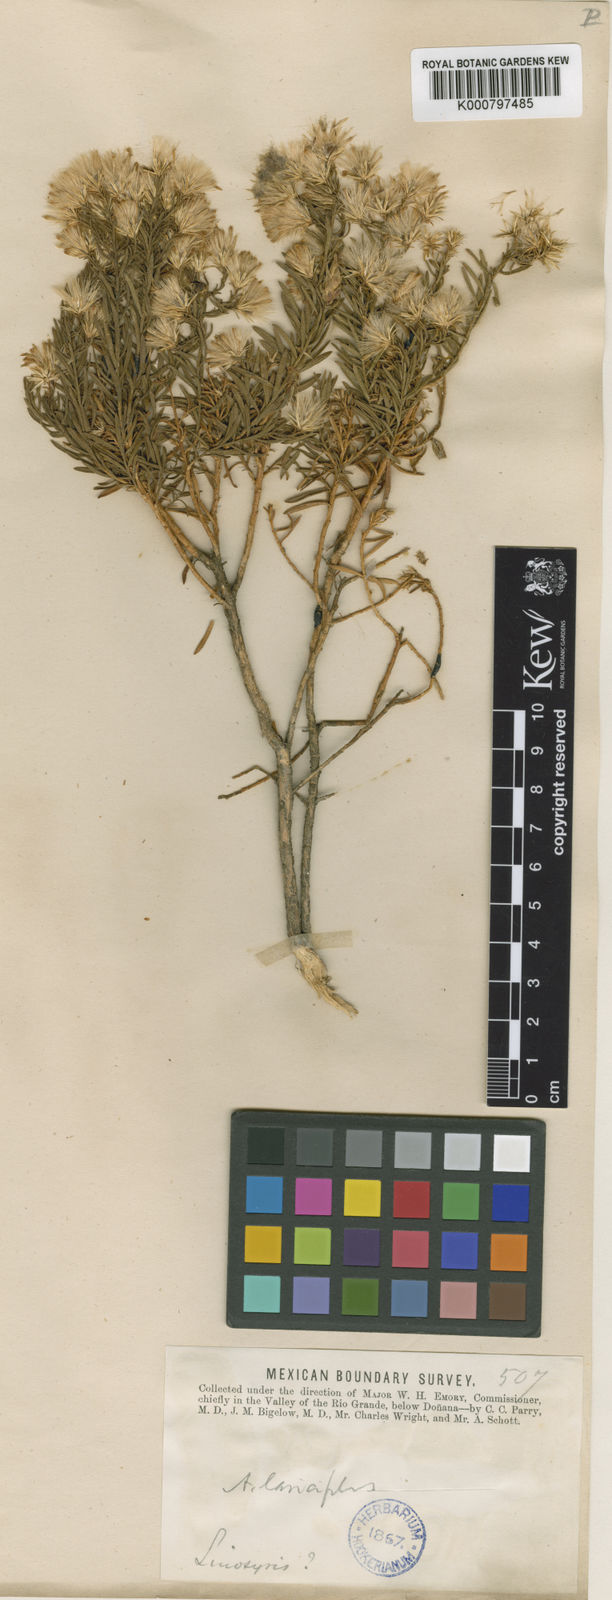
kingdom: Plantae
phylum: Tracheophyta
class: Magnoliopsida
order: Asterales
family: Asteraceae
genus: Ericameria
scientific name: Ericameria laricifolia
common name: Turpentine-bush
